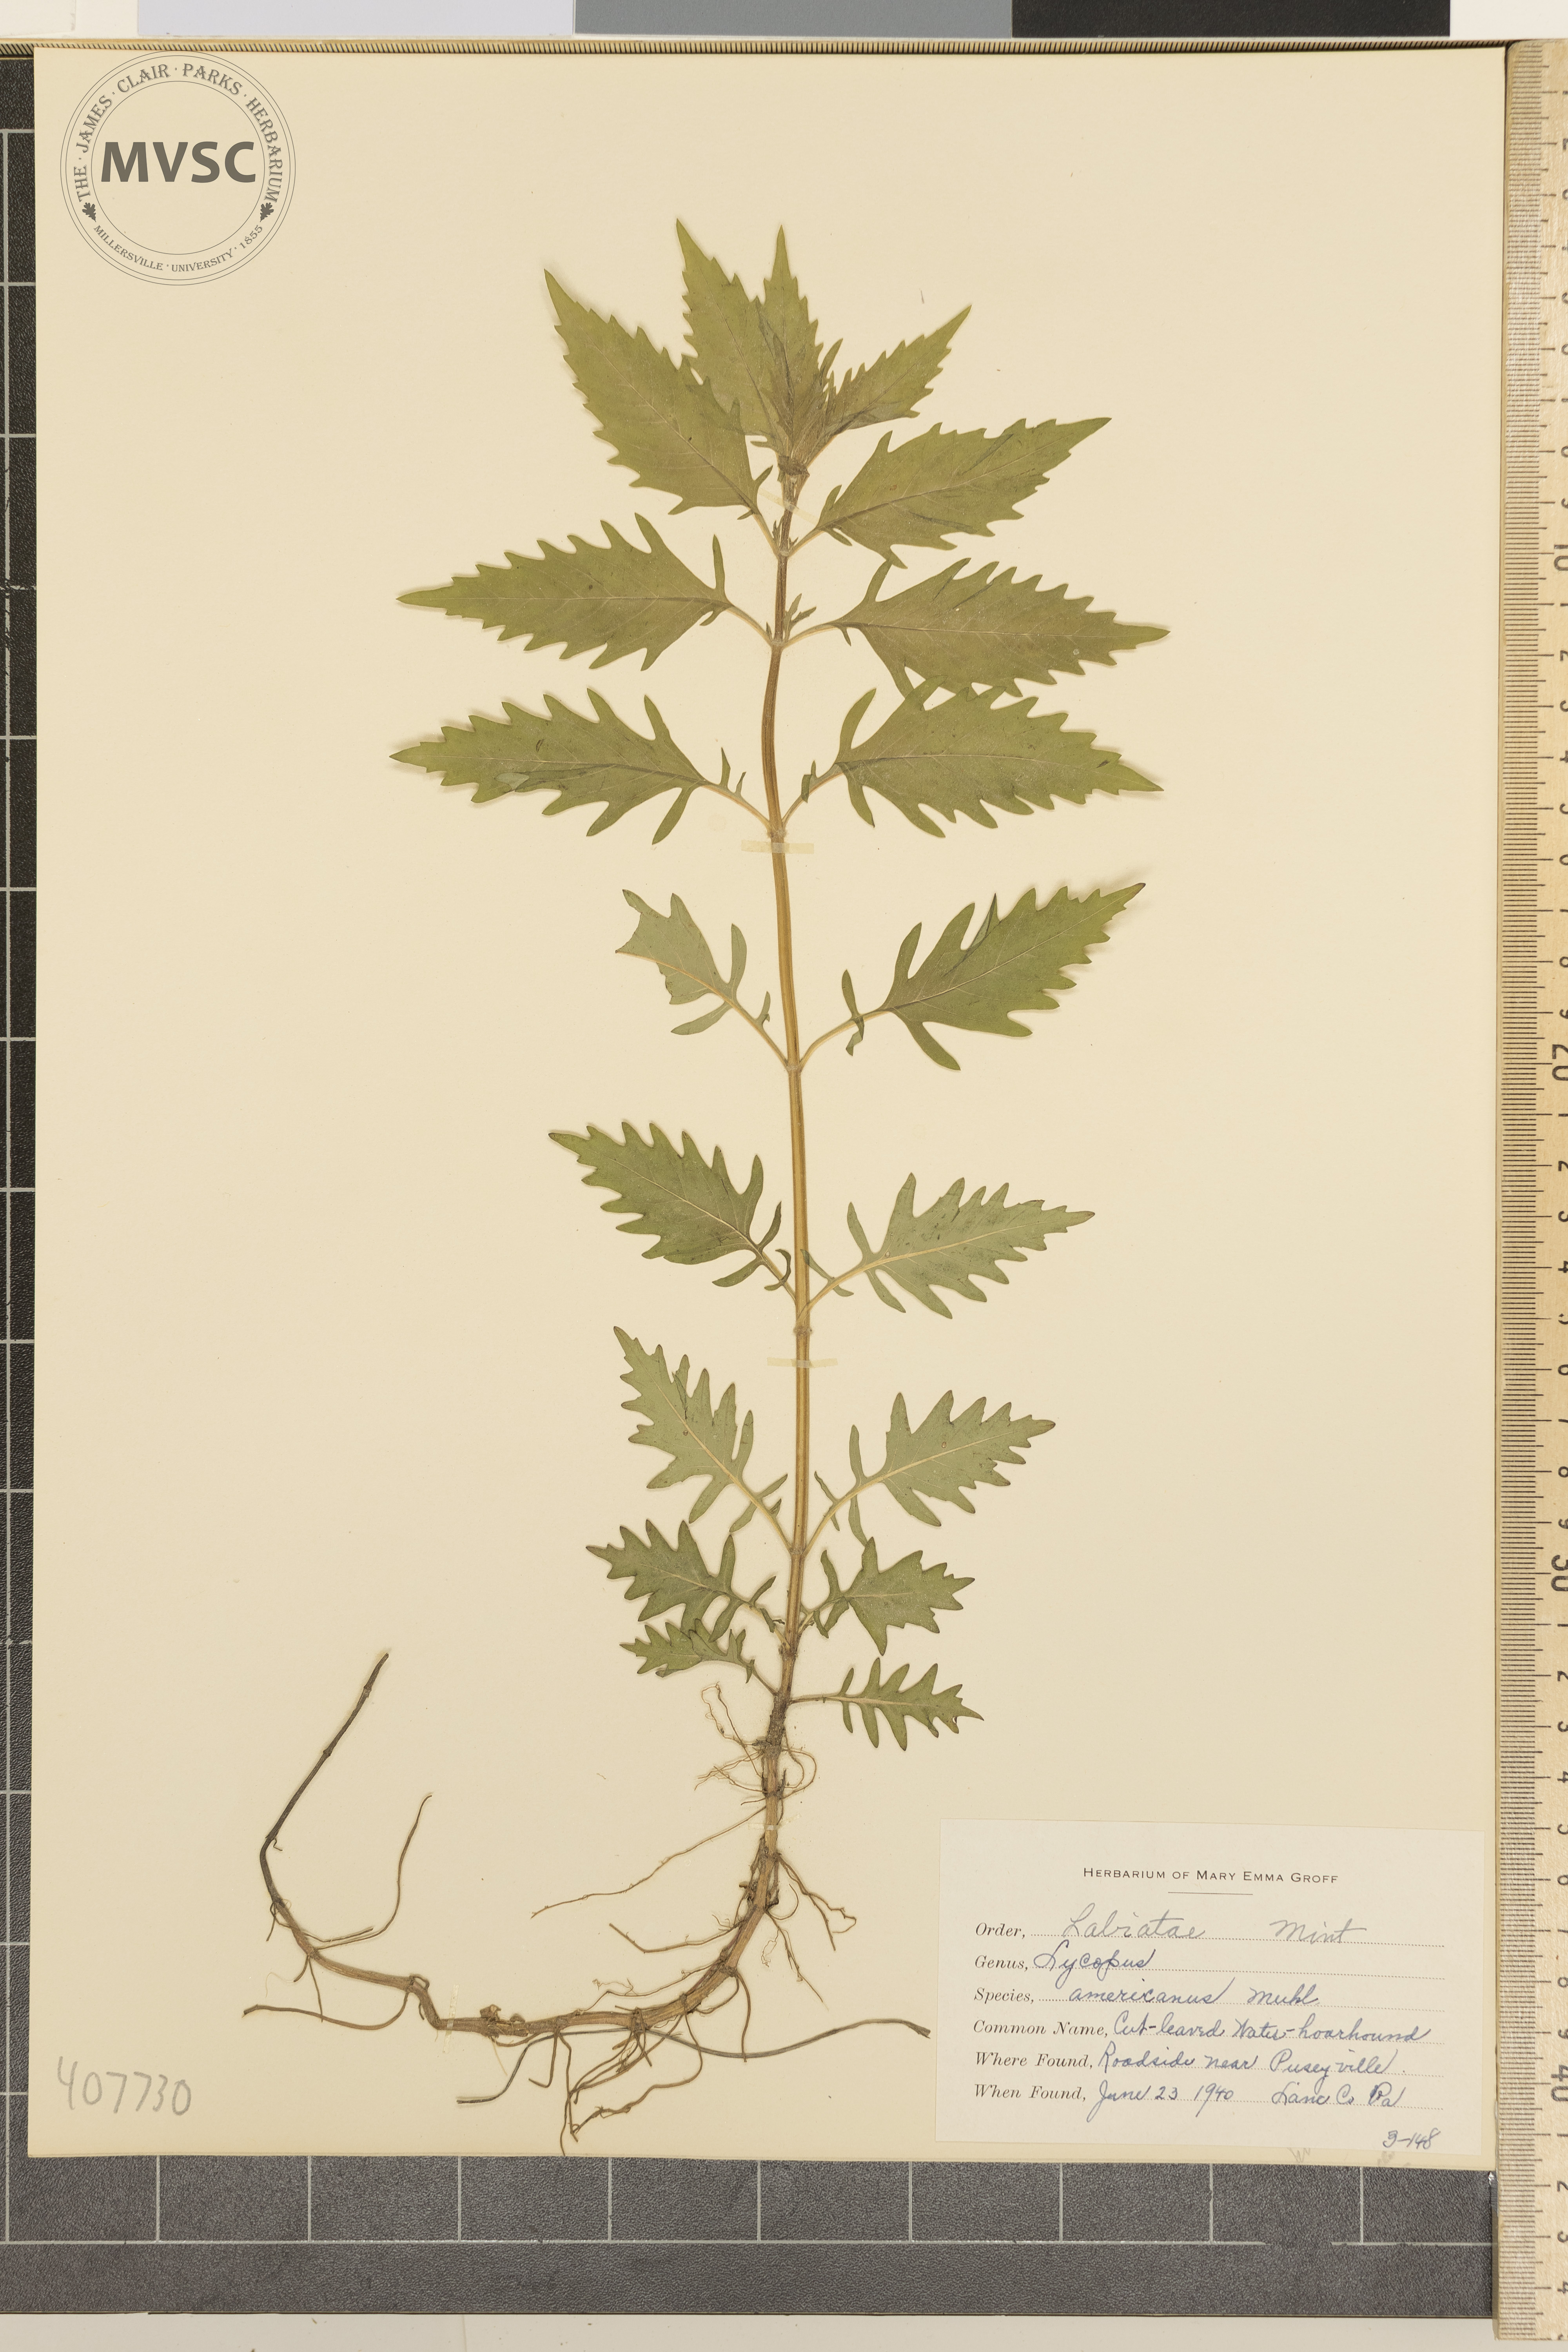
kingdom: Plantae
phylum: Tracheophyta
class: Magnoliopsida
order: Lamiales
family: Lamiaceae
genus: Lycopus
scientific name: Lycopus americanus
